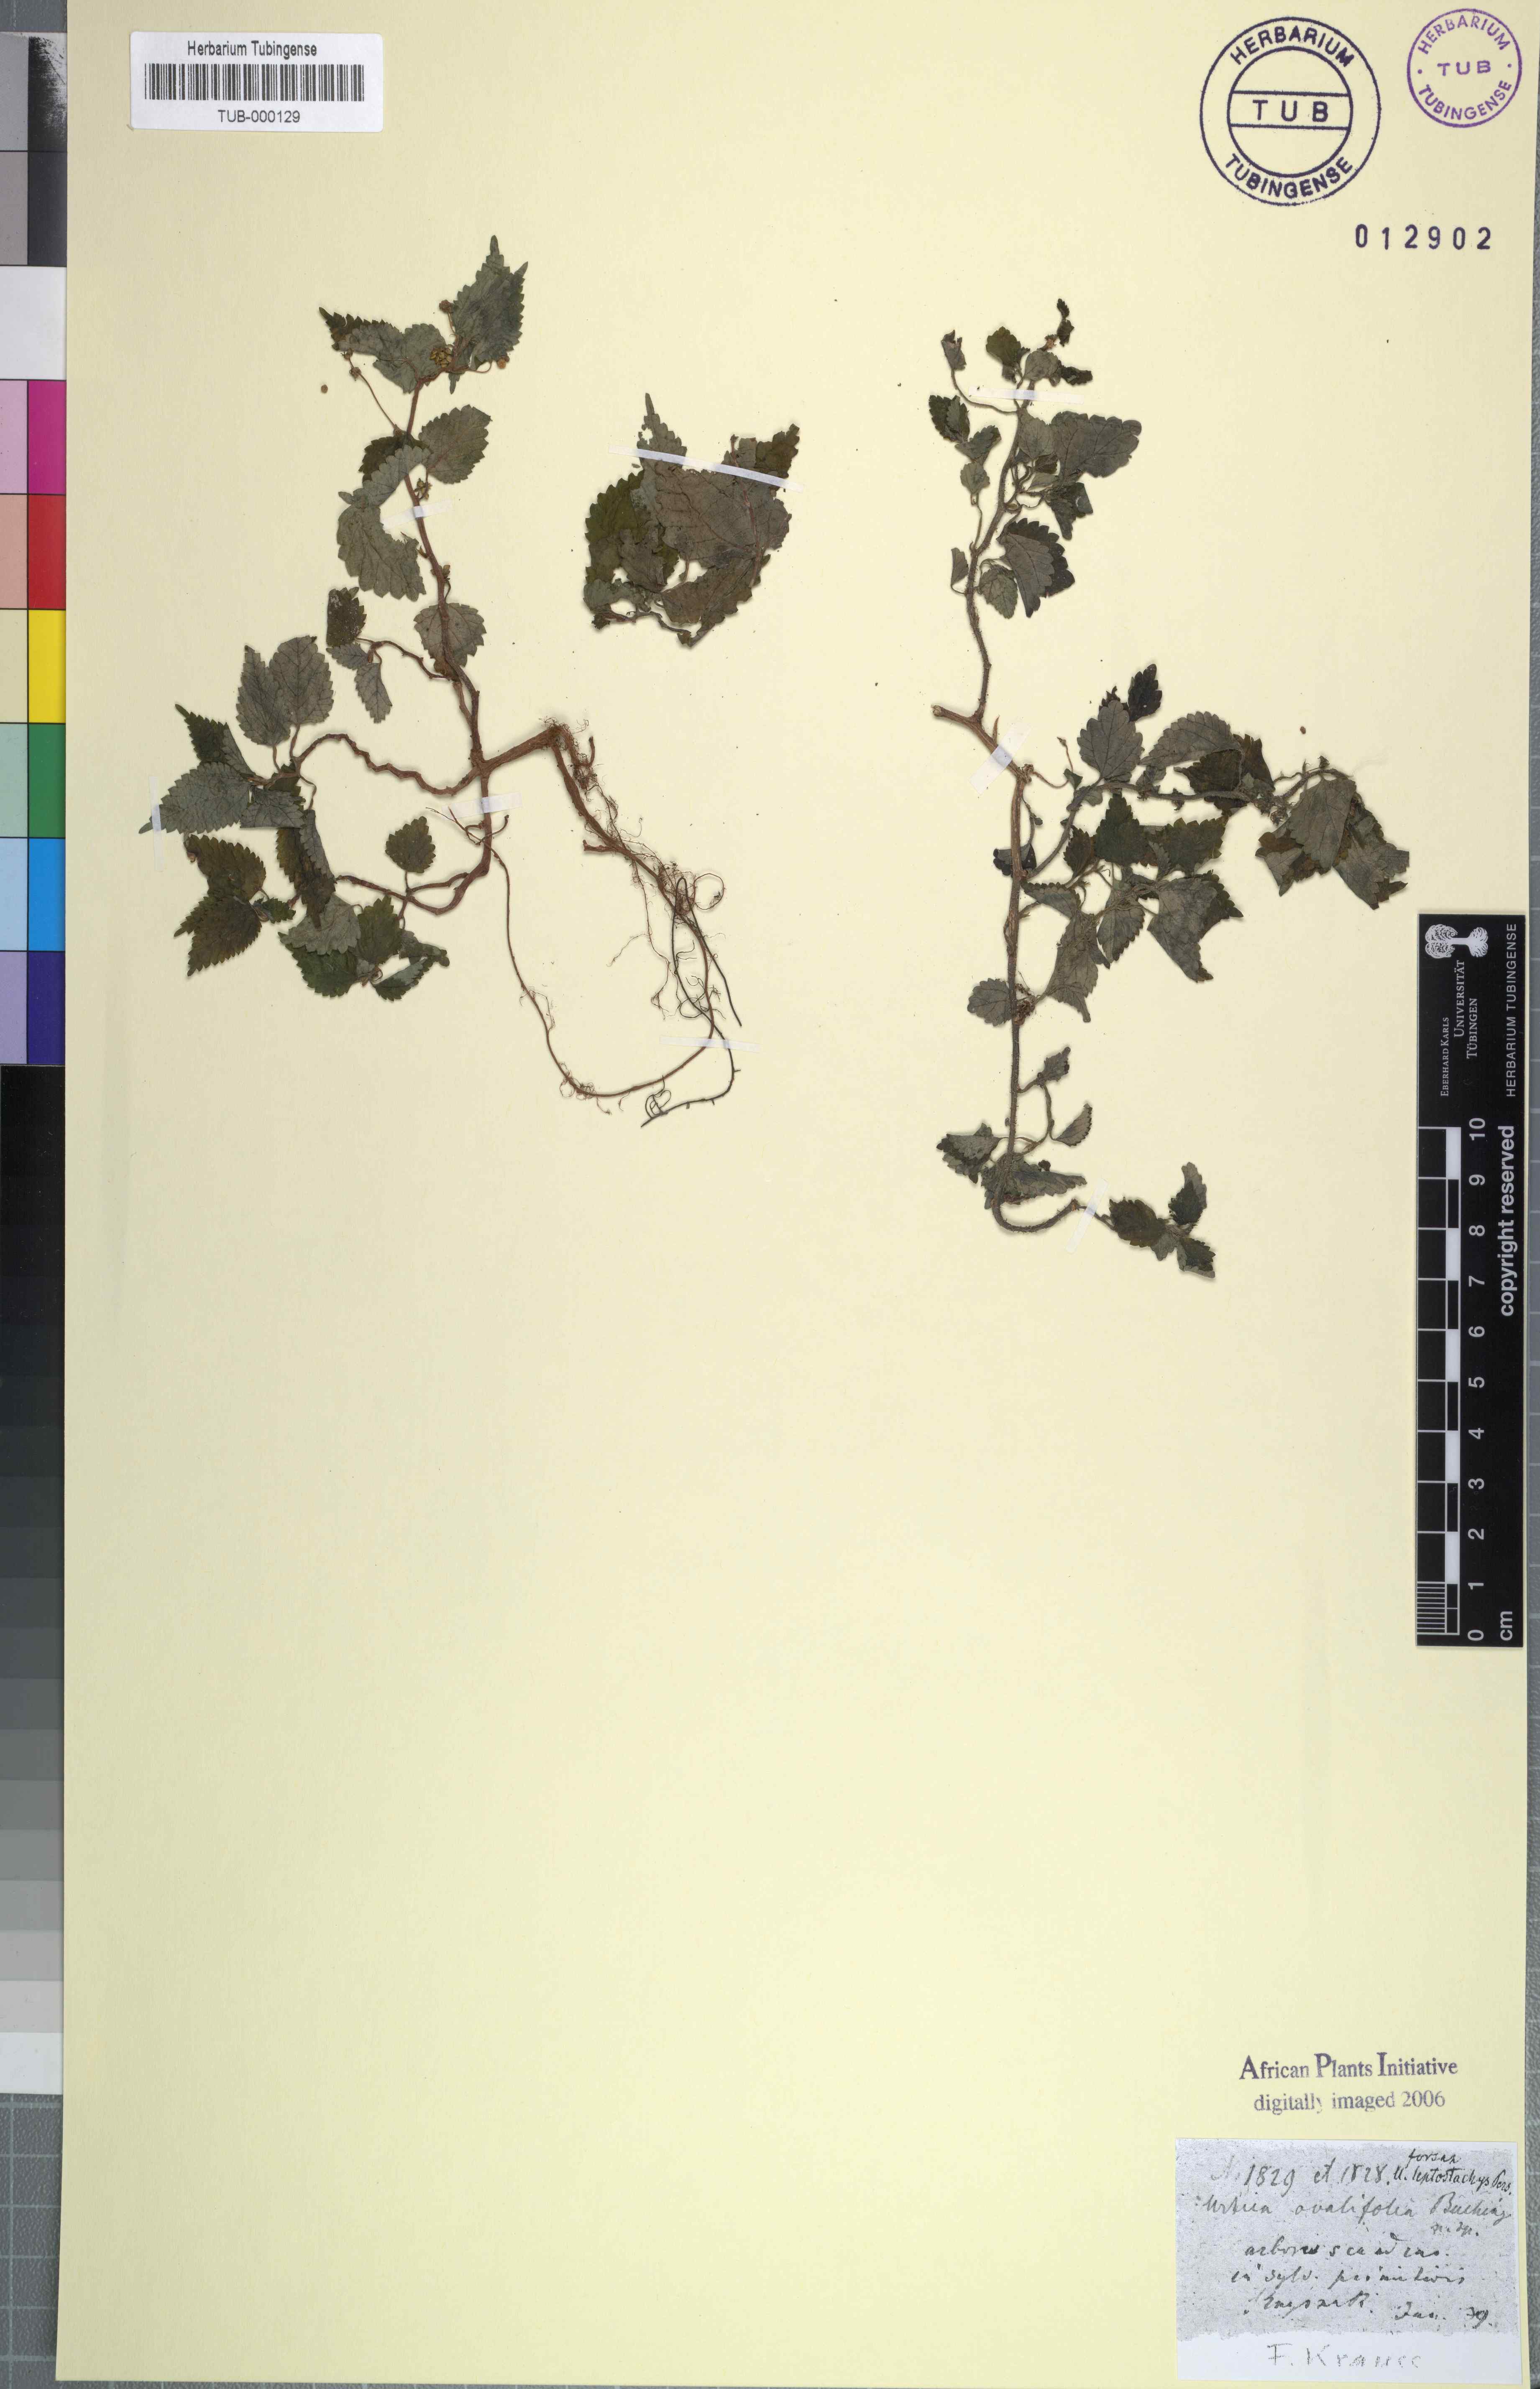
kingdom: Plantae
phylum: Tracheophyta
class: Magnoliopsida
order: Rosales
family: Urticaceae
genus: Didymodoxa
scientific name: Didymodoxa capensis
